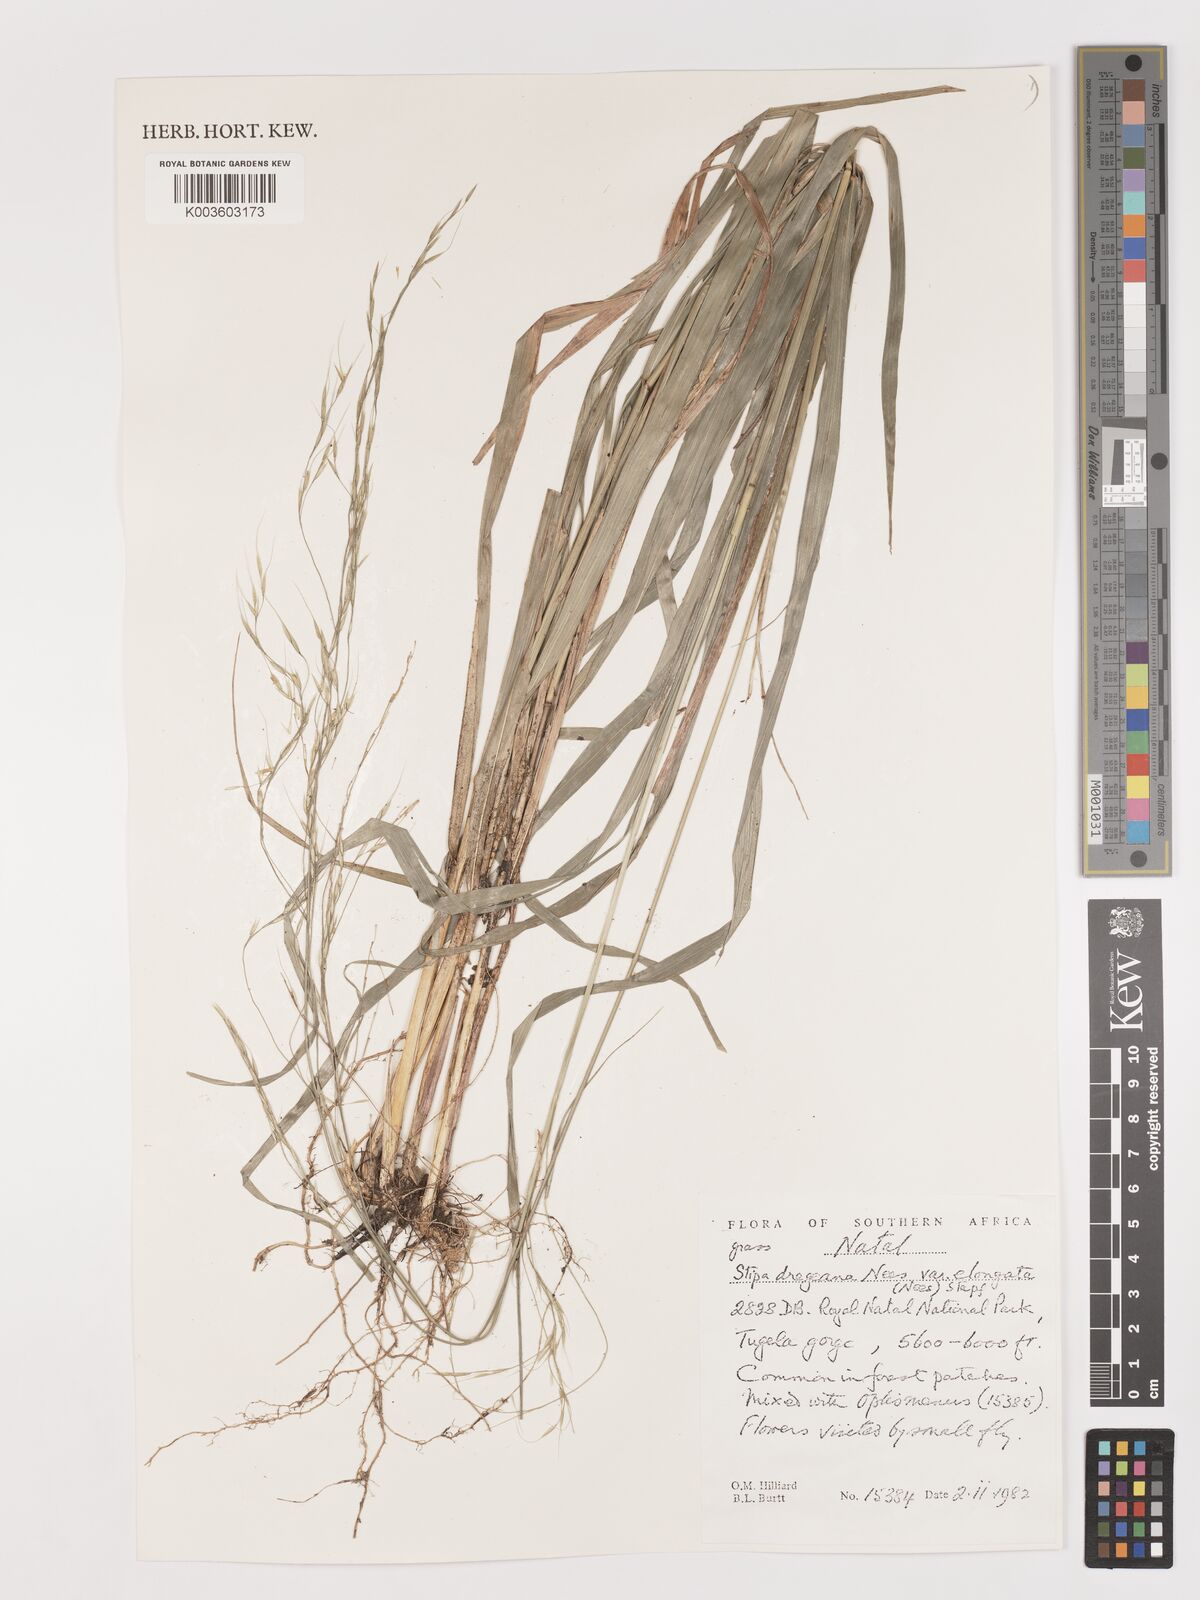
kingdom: Plantae
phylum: Tracheophyta
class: Liliopsida
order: Poales
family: Poaceae
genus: Stipa
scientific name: Stipa dregeana
